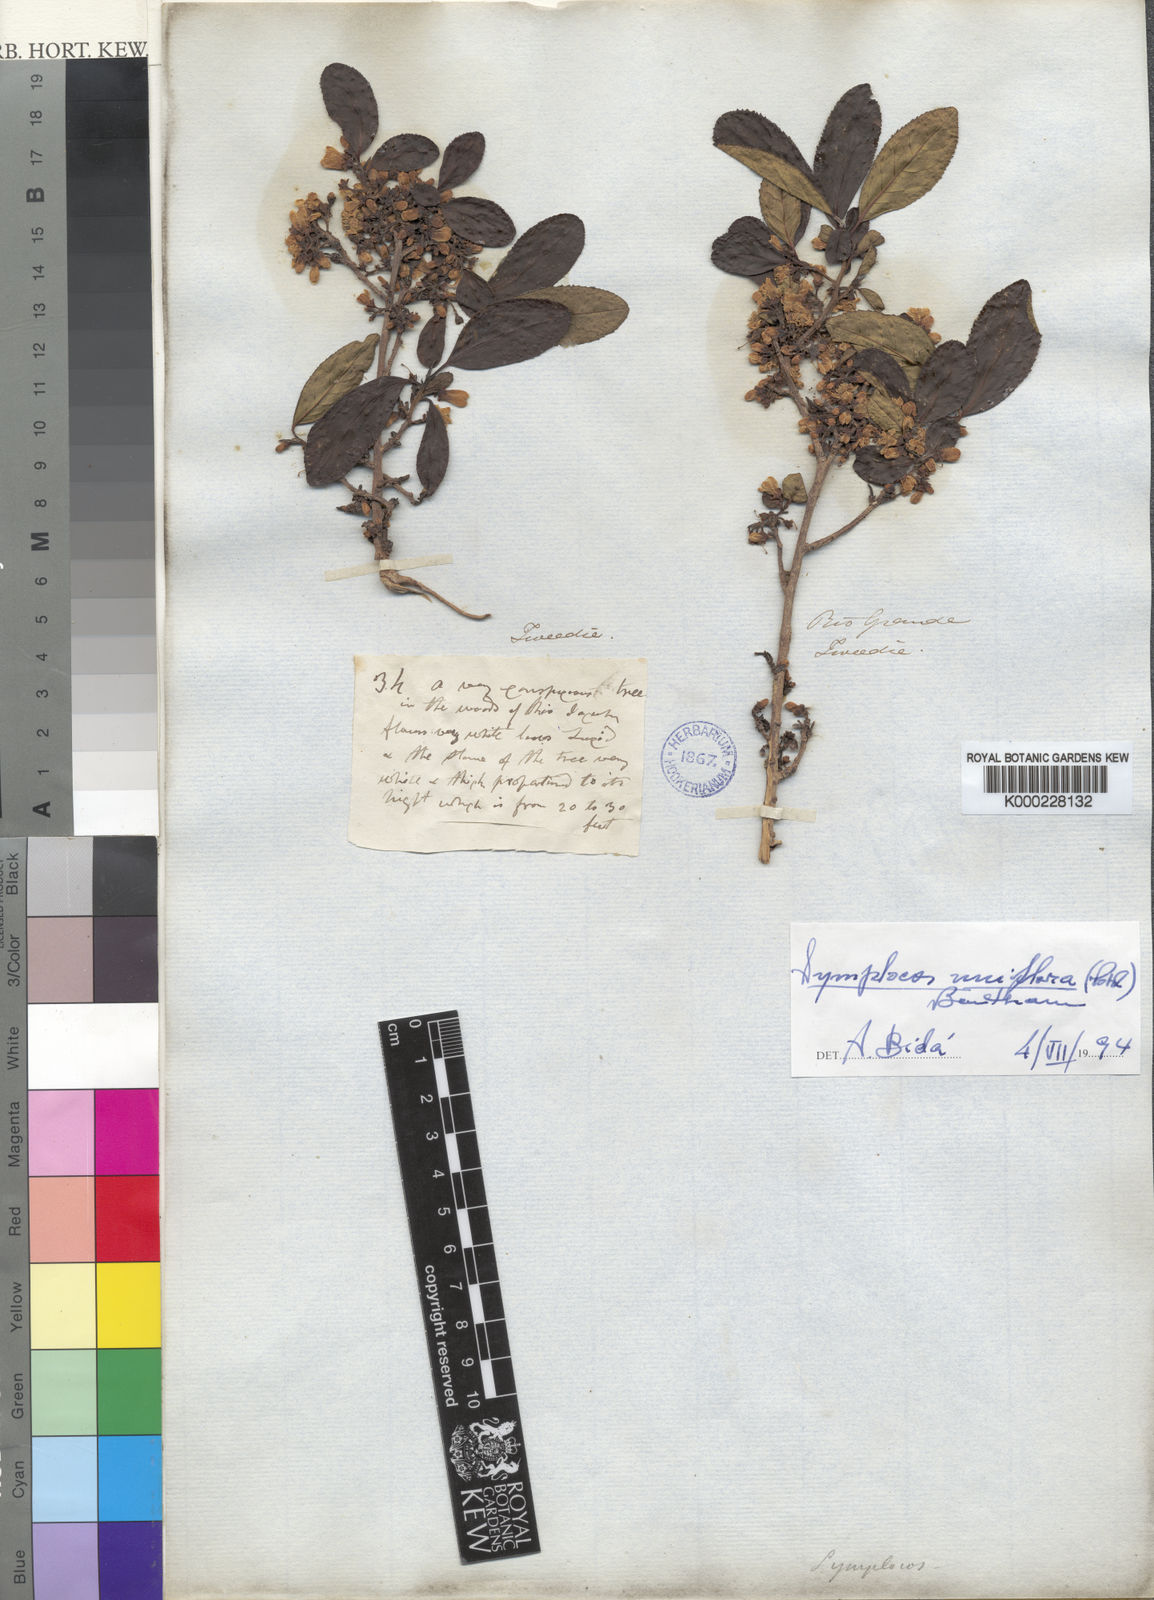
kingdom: Plantae
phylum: Tracheophyta
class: Magnoliopsida
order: Ericales
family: Symplocaceae
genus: Symplocos
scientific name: Symplocos uniflora
